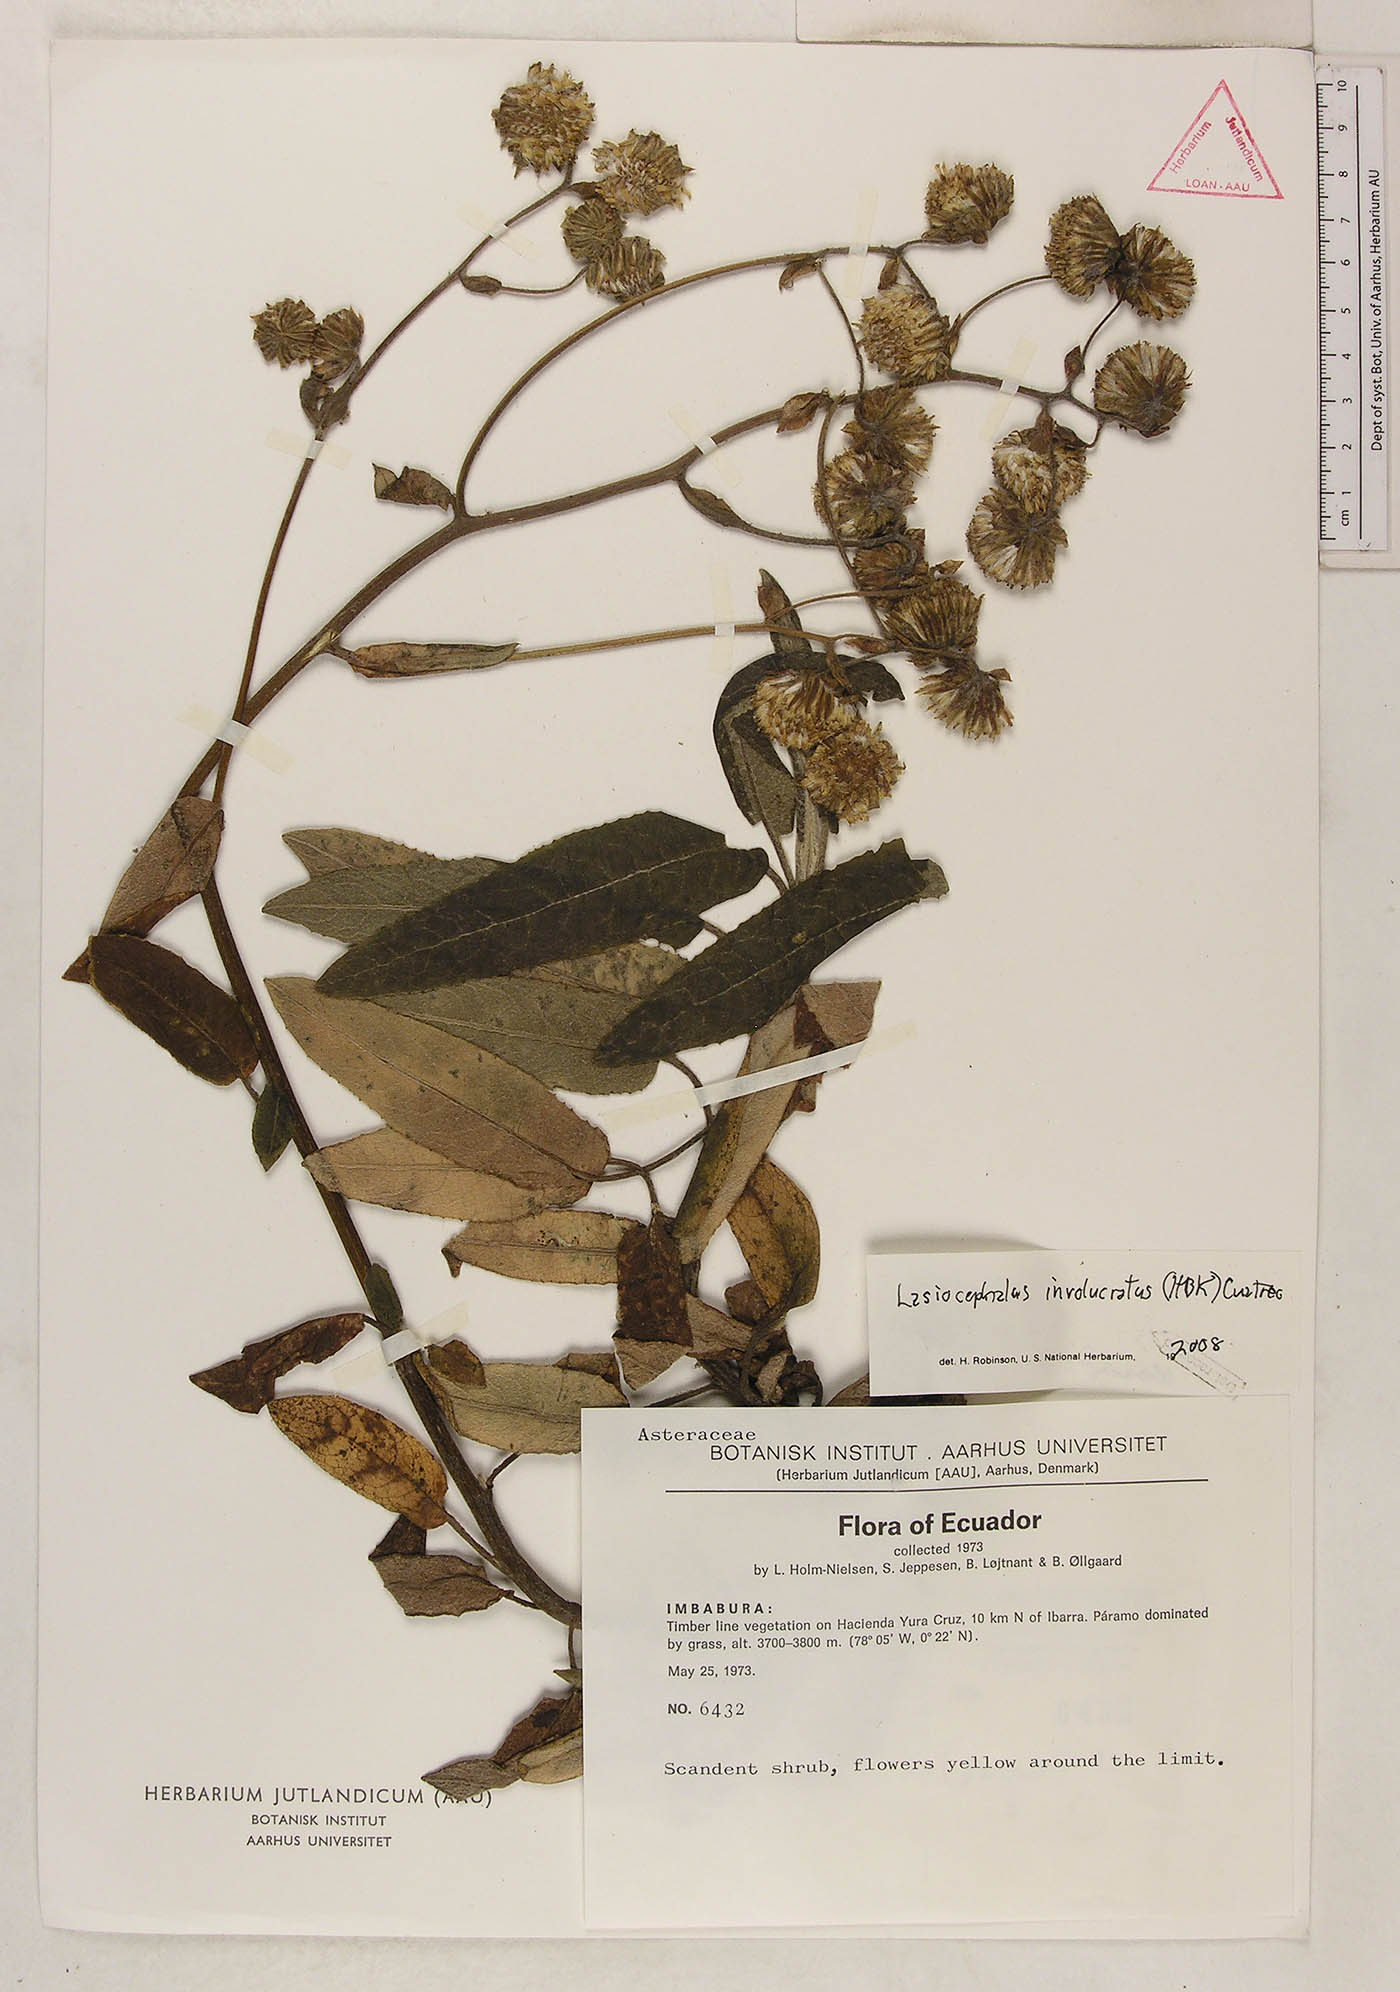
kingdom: Plantae
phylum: Tracheophyta
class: Magnoliopsida
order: Asterales
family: Asteraceae
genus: Aetheolaena
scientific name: Aetheolaena involucrata
